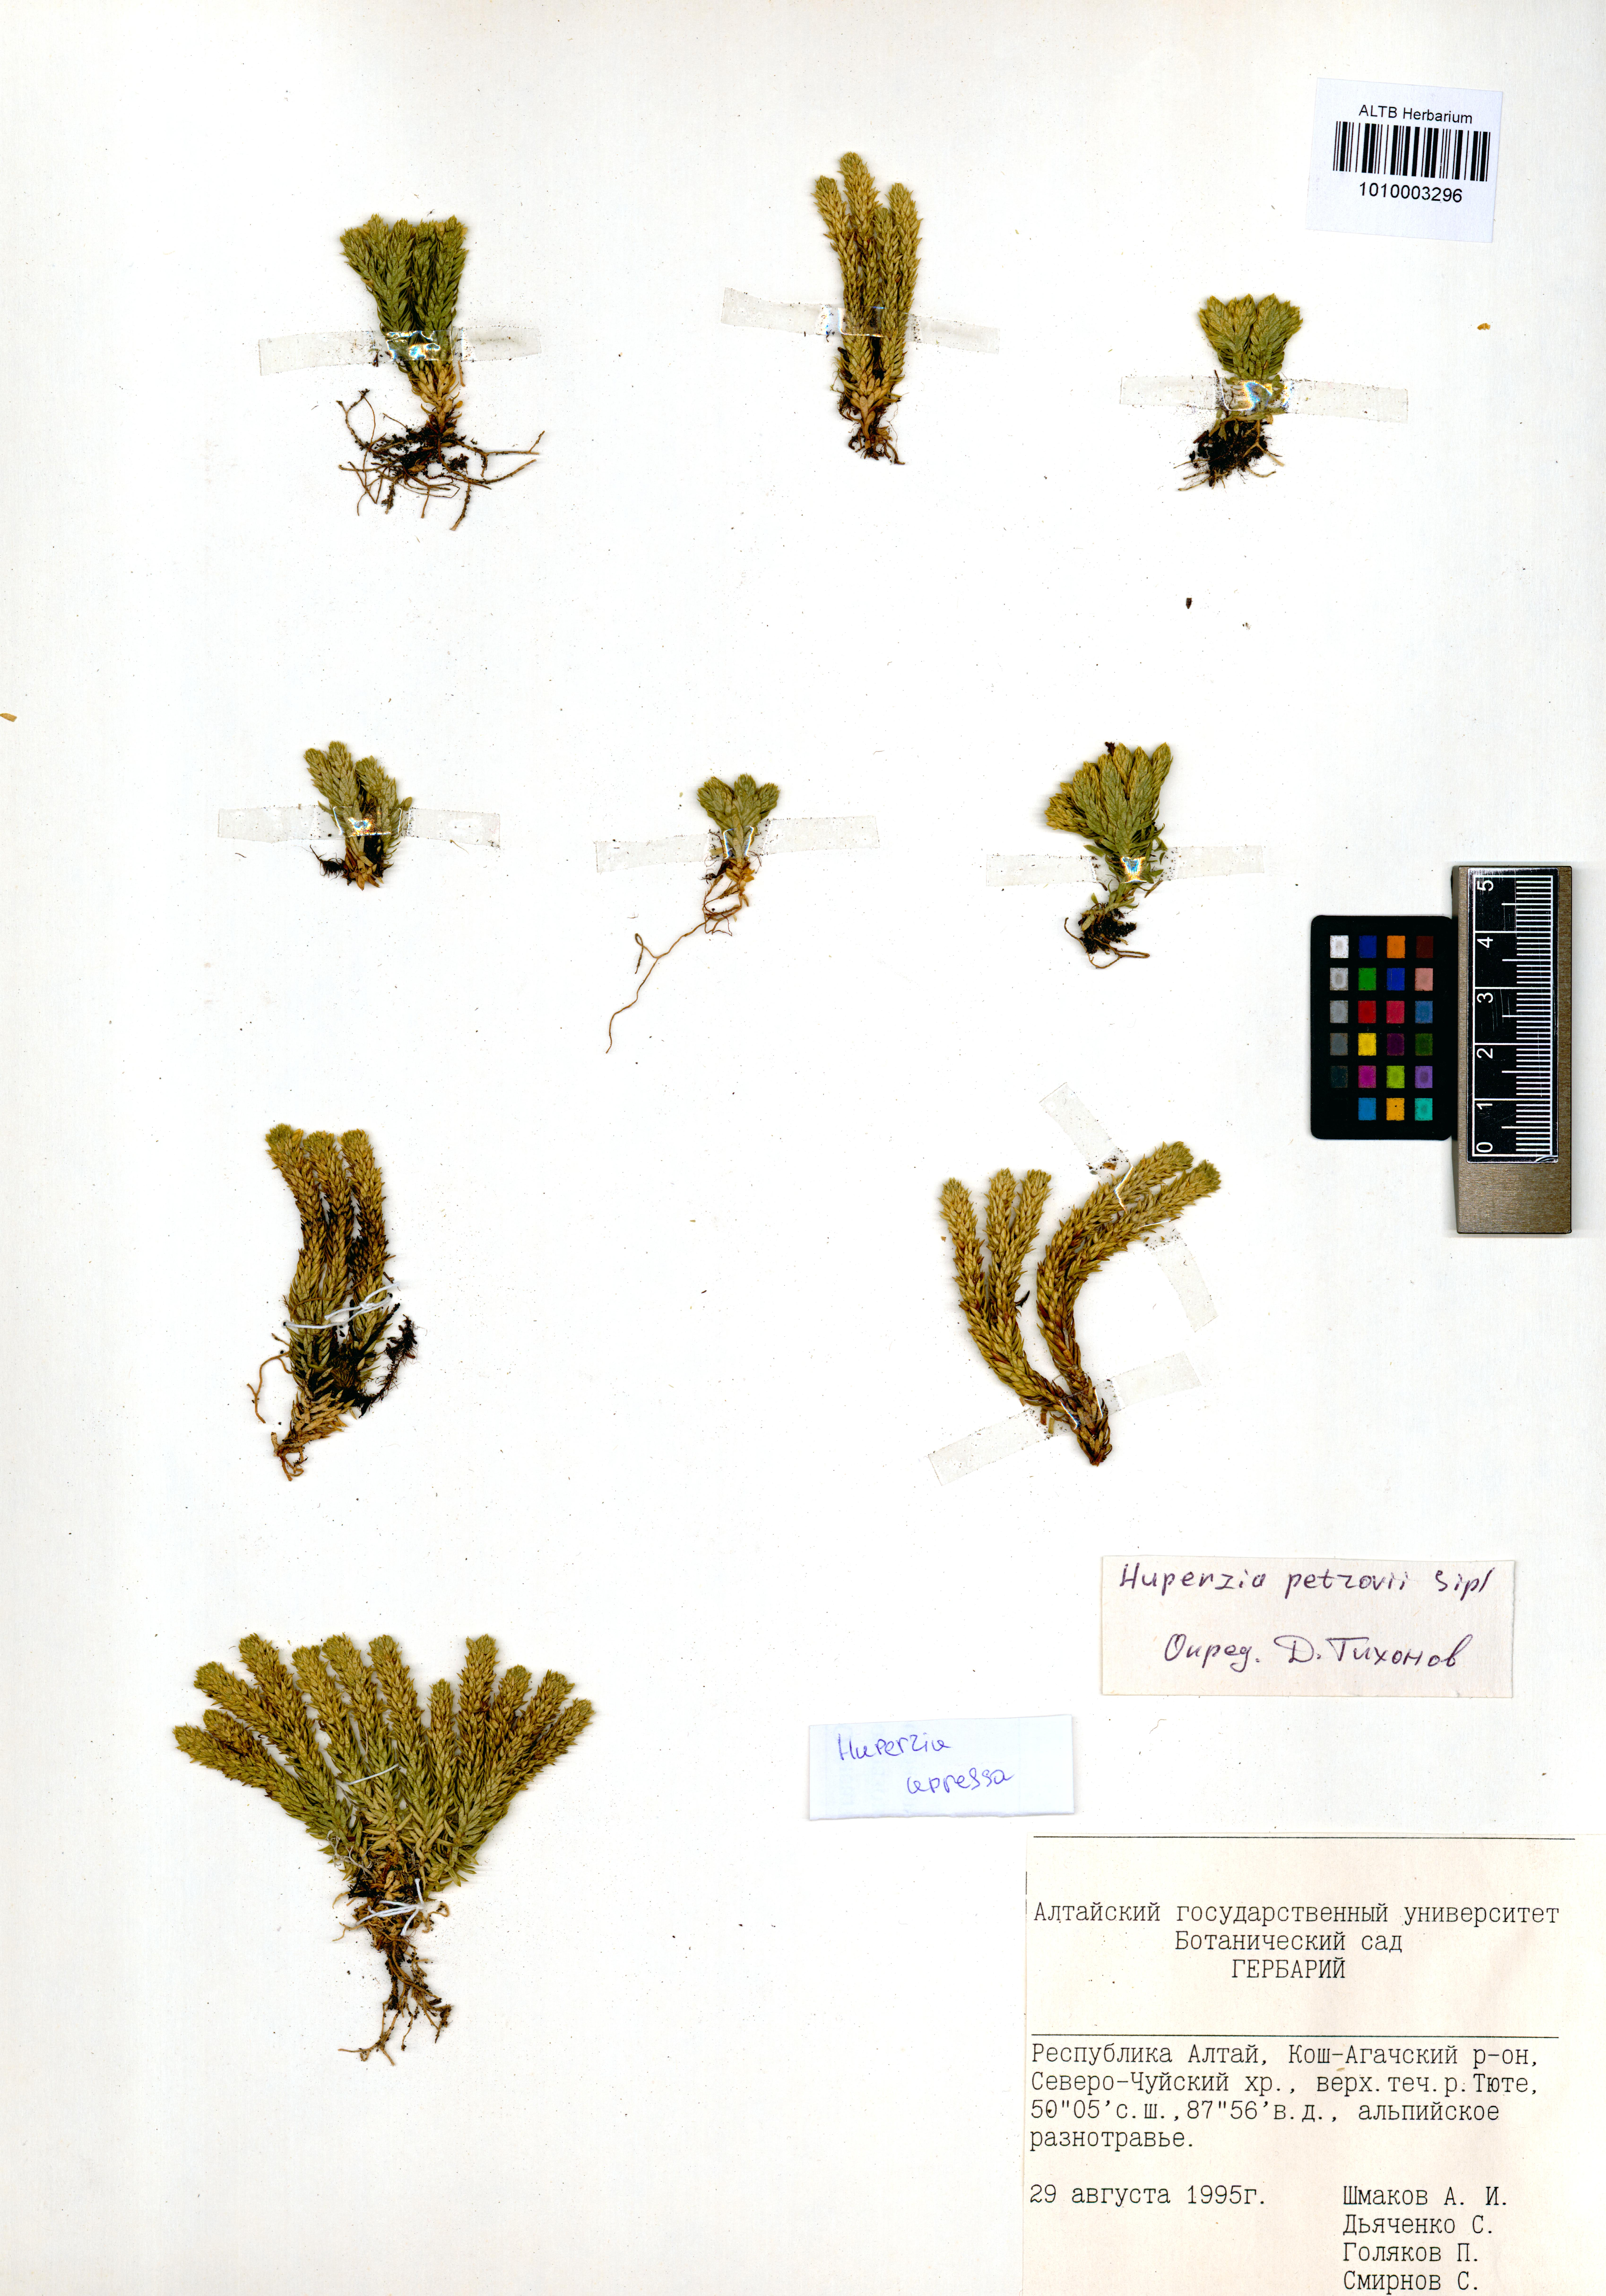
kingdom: Plantae
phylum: Tracheophyta
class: Lycopodiopsida
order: Lycopodiales
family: Lycopodiaceae
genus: Huperzia
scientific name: Huperzia selago
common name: Northern firmoss
